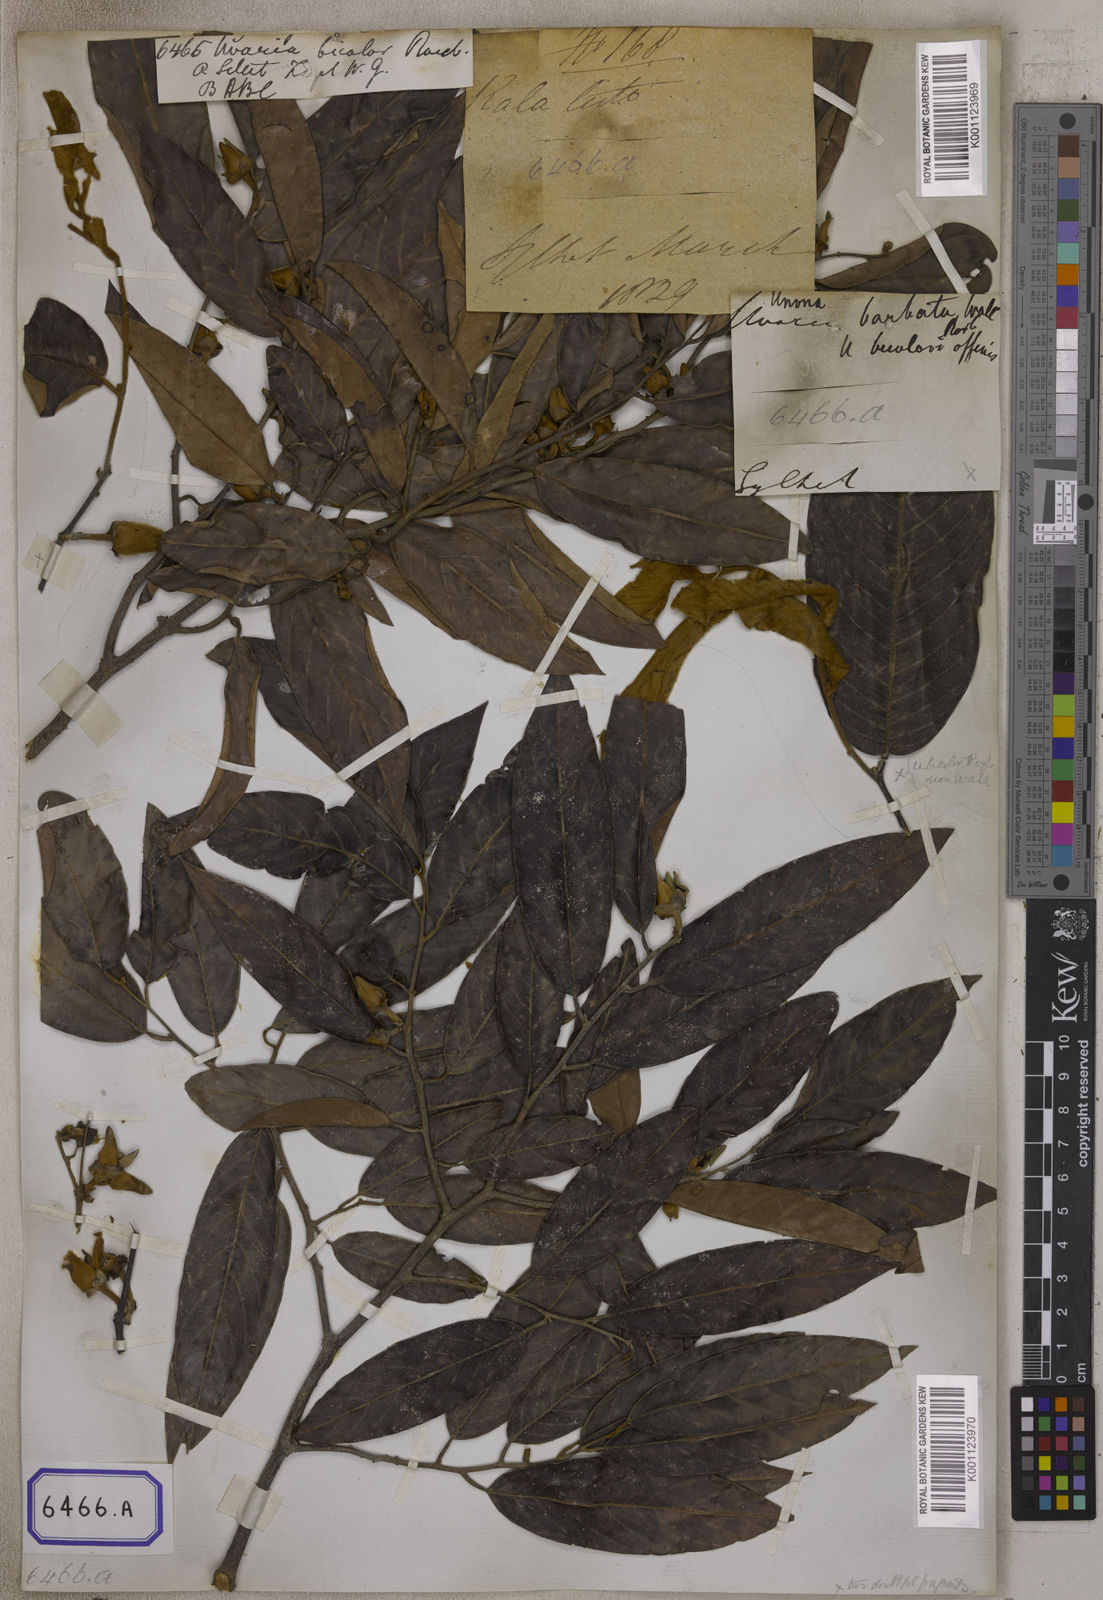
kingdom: Plantae
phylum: Tracheophyta
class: Magnoliopsida
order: Magnoliales
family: Annonaceae
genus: Fissistigma
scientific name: Fissistigma bicolor
